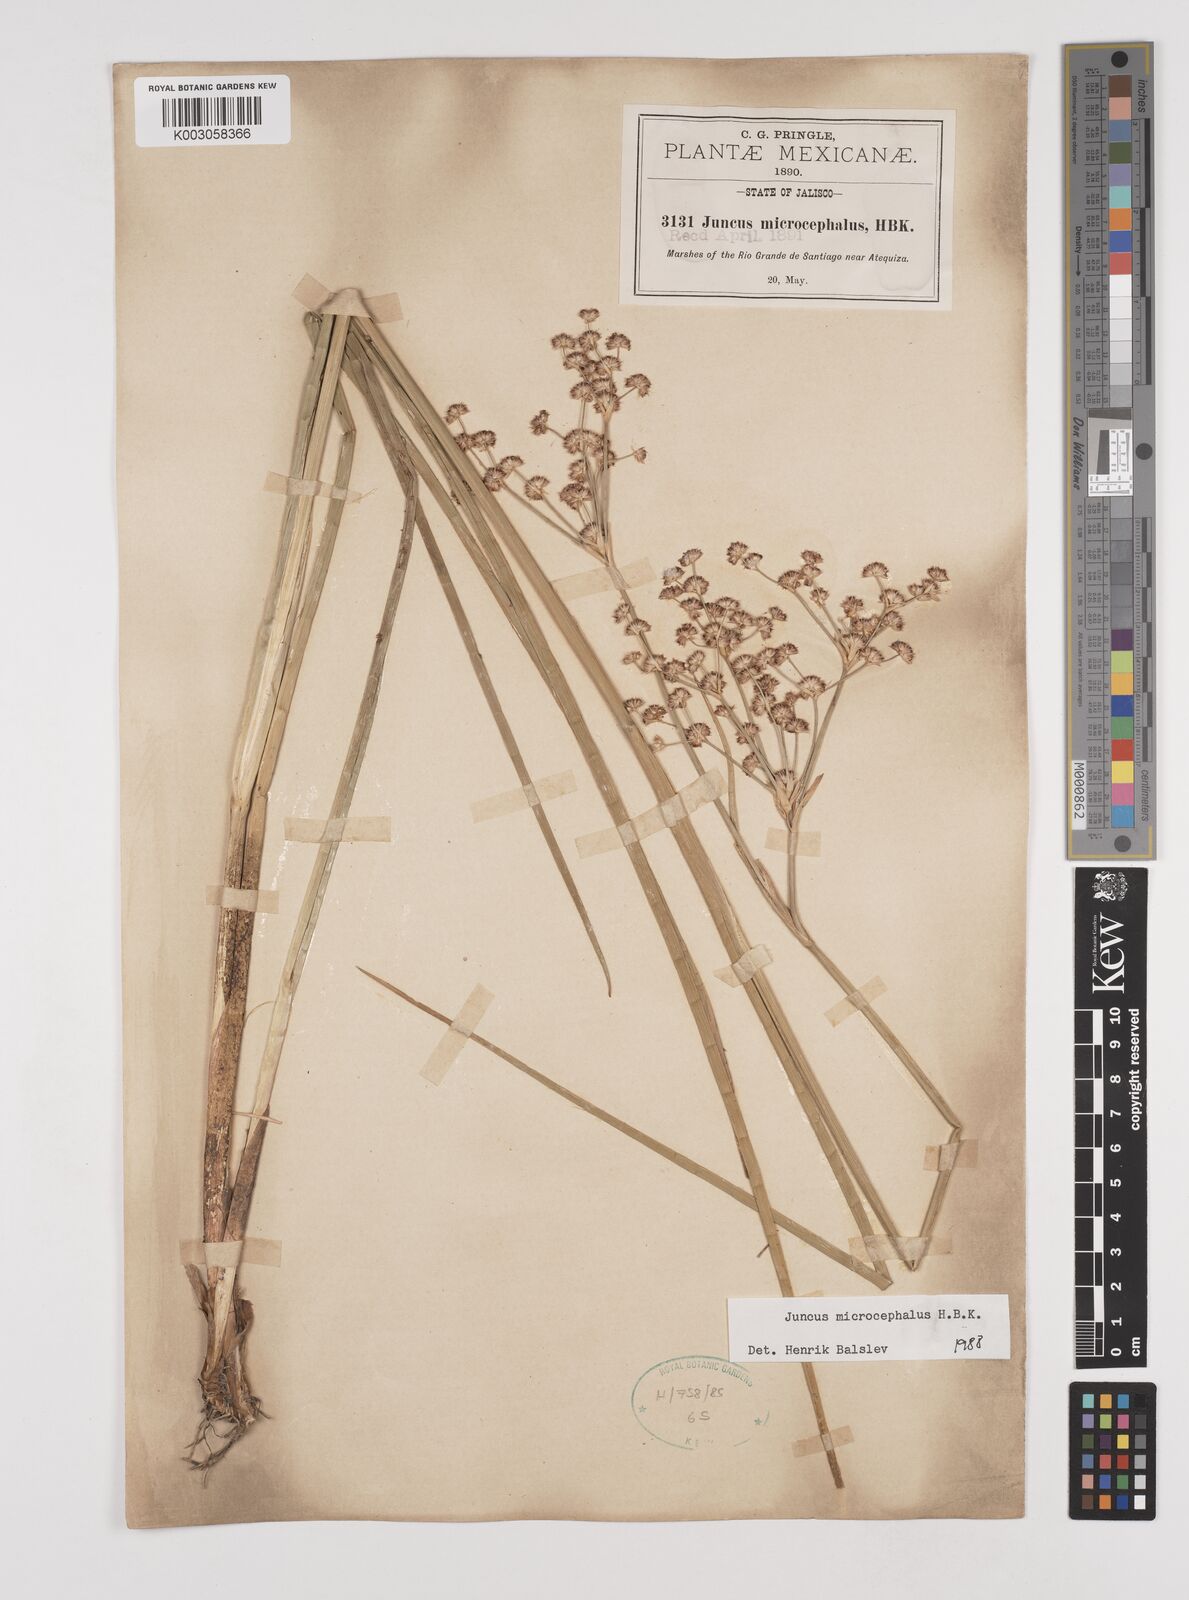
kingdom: Plantae
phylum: Tracheophyta
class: Liliopsida
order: Poales
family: Juncaceae
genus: Juncus
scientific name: Juncus microcephalus
